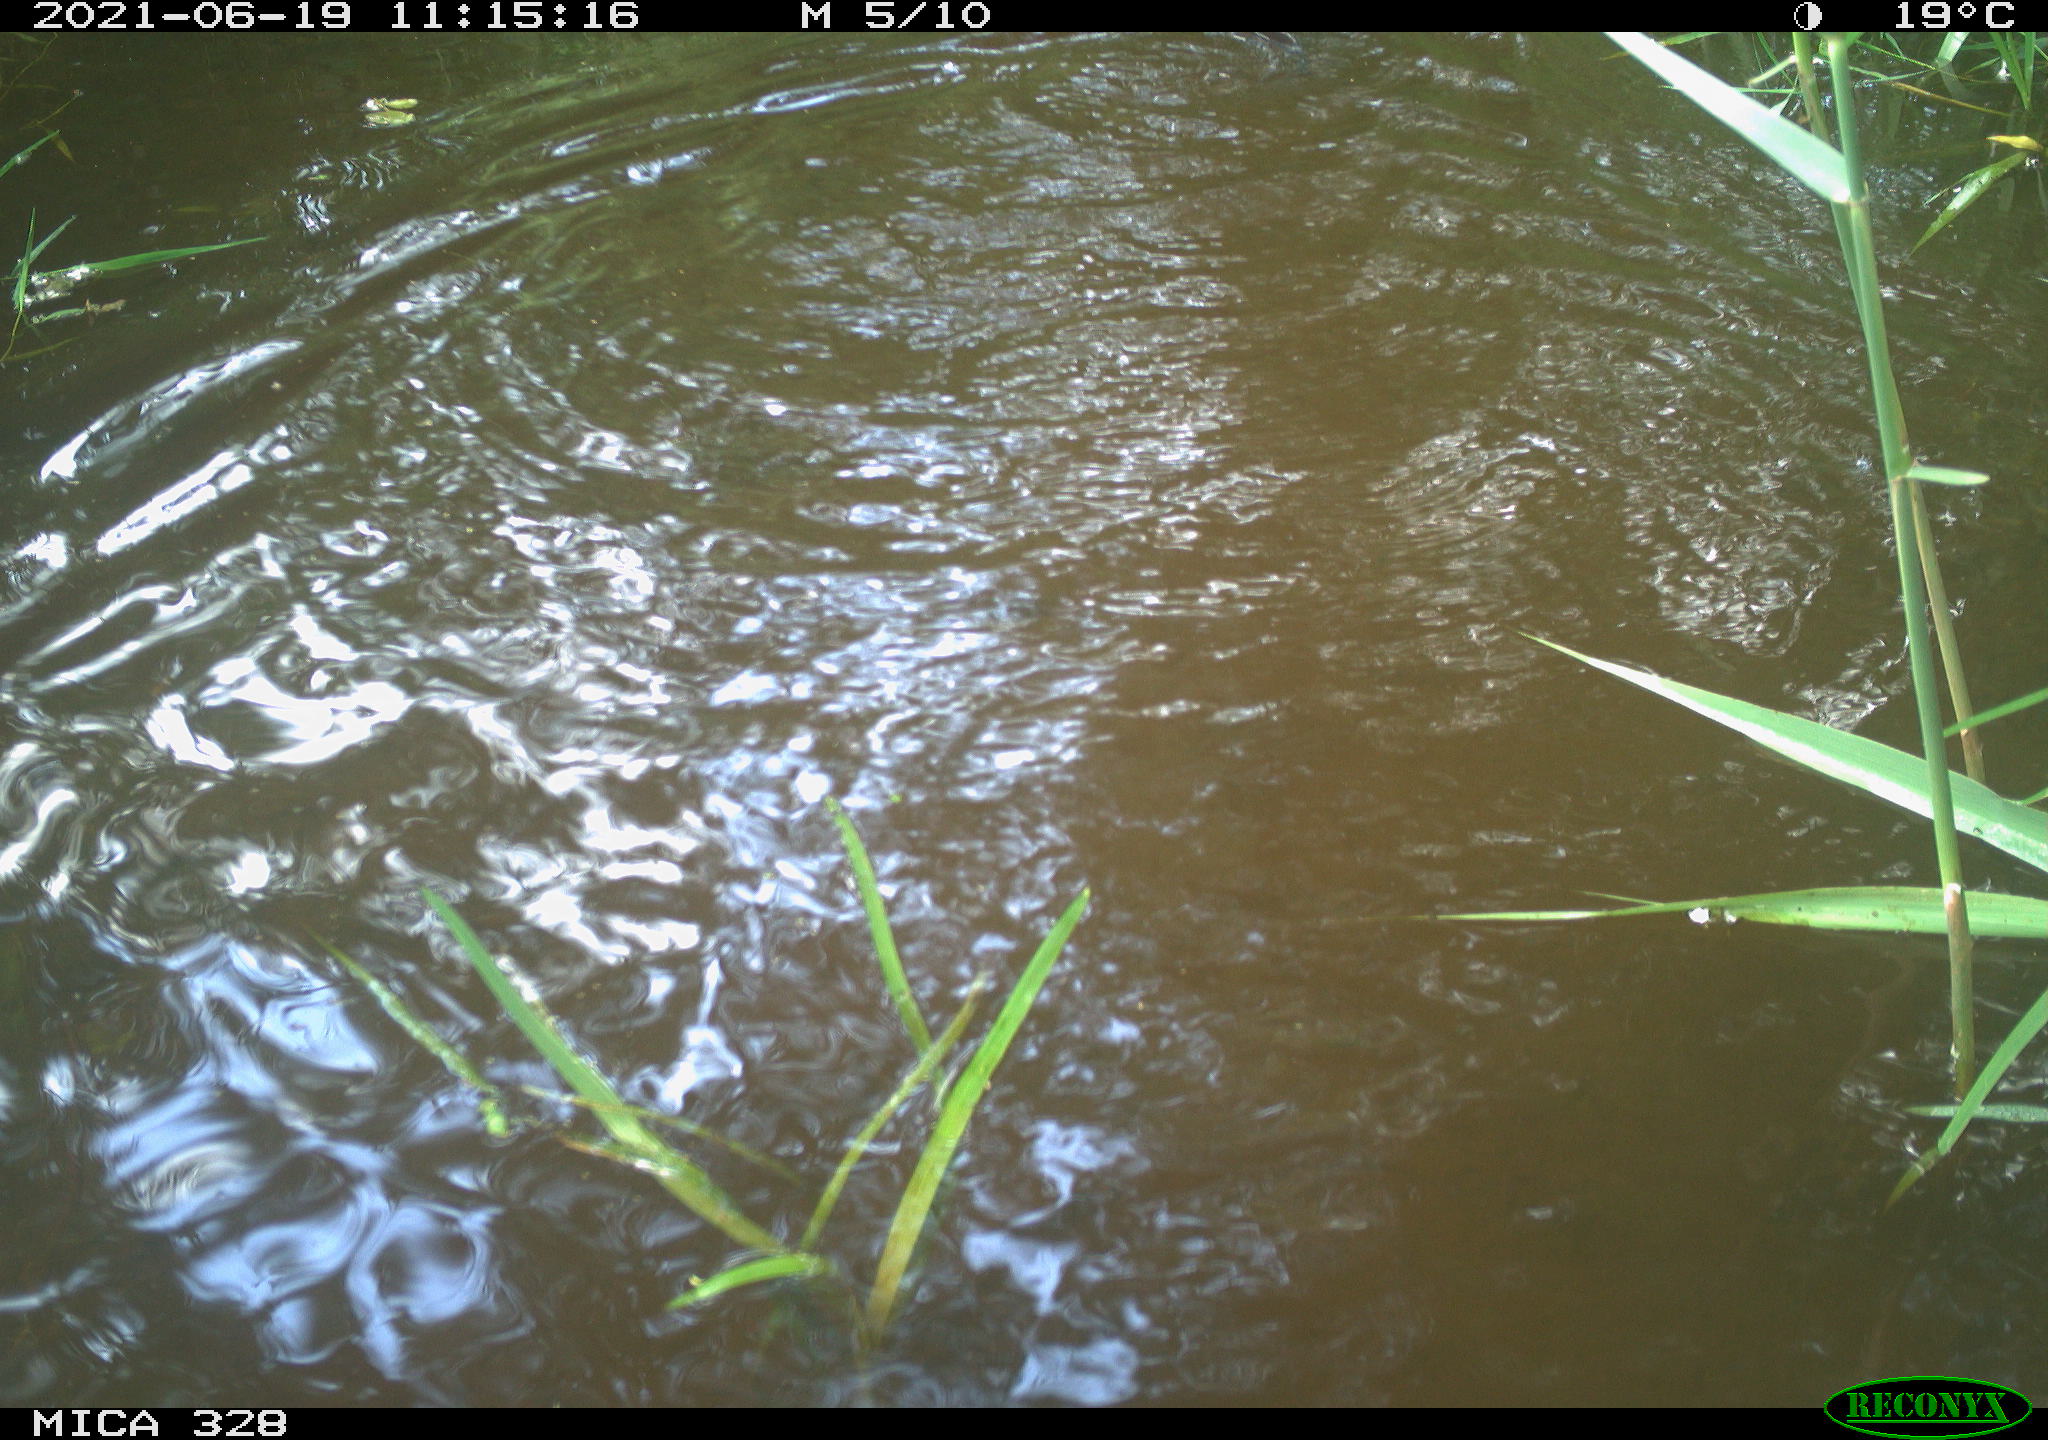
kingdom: Animalia
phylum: Chordata
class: Mammalia
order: Rodentia
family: Cricetidae
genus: Ondatra
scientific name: Ondatra zibethicus
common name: Muskrat
